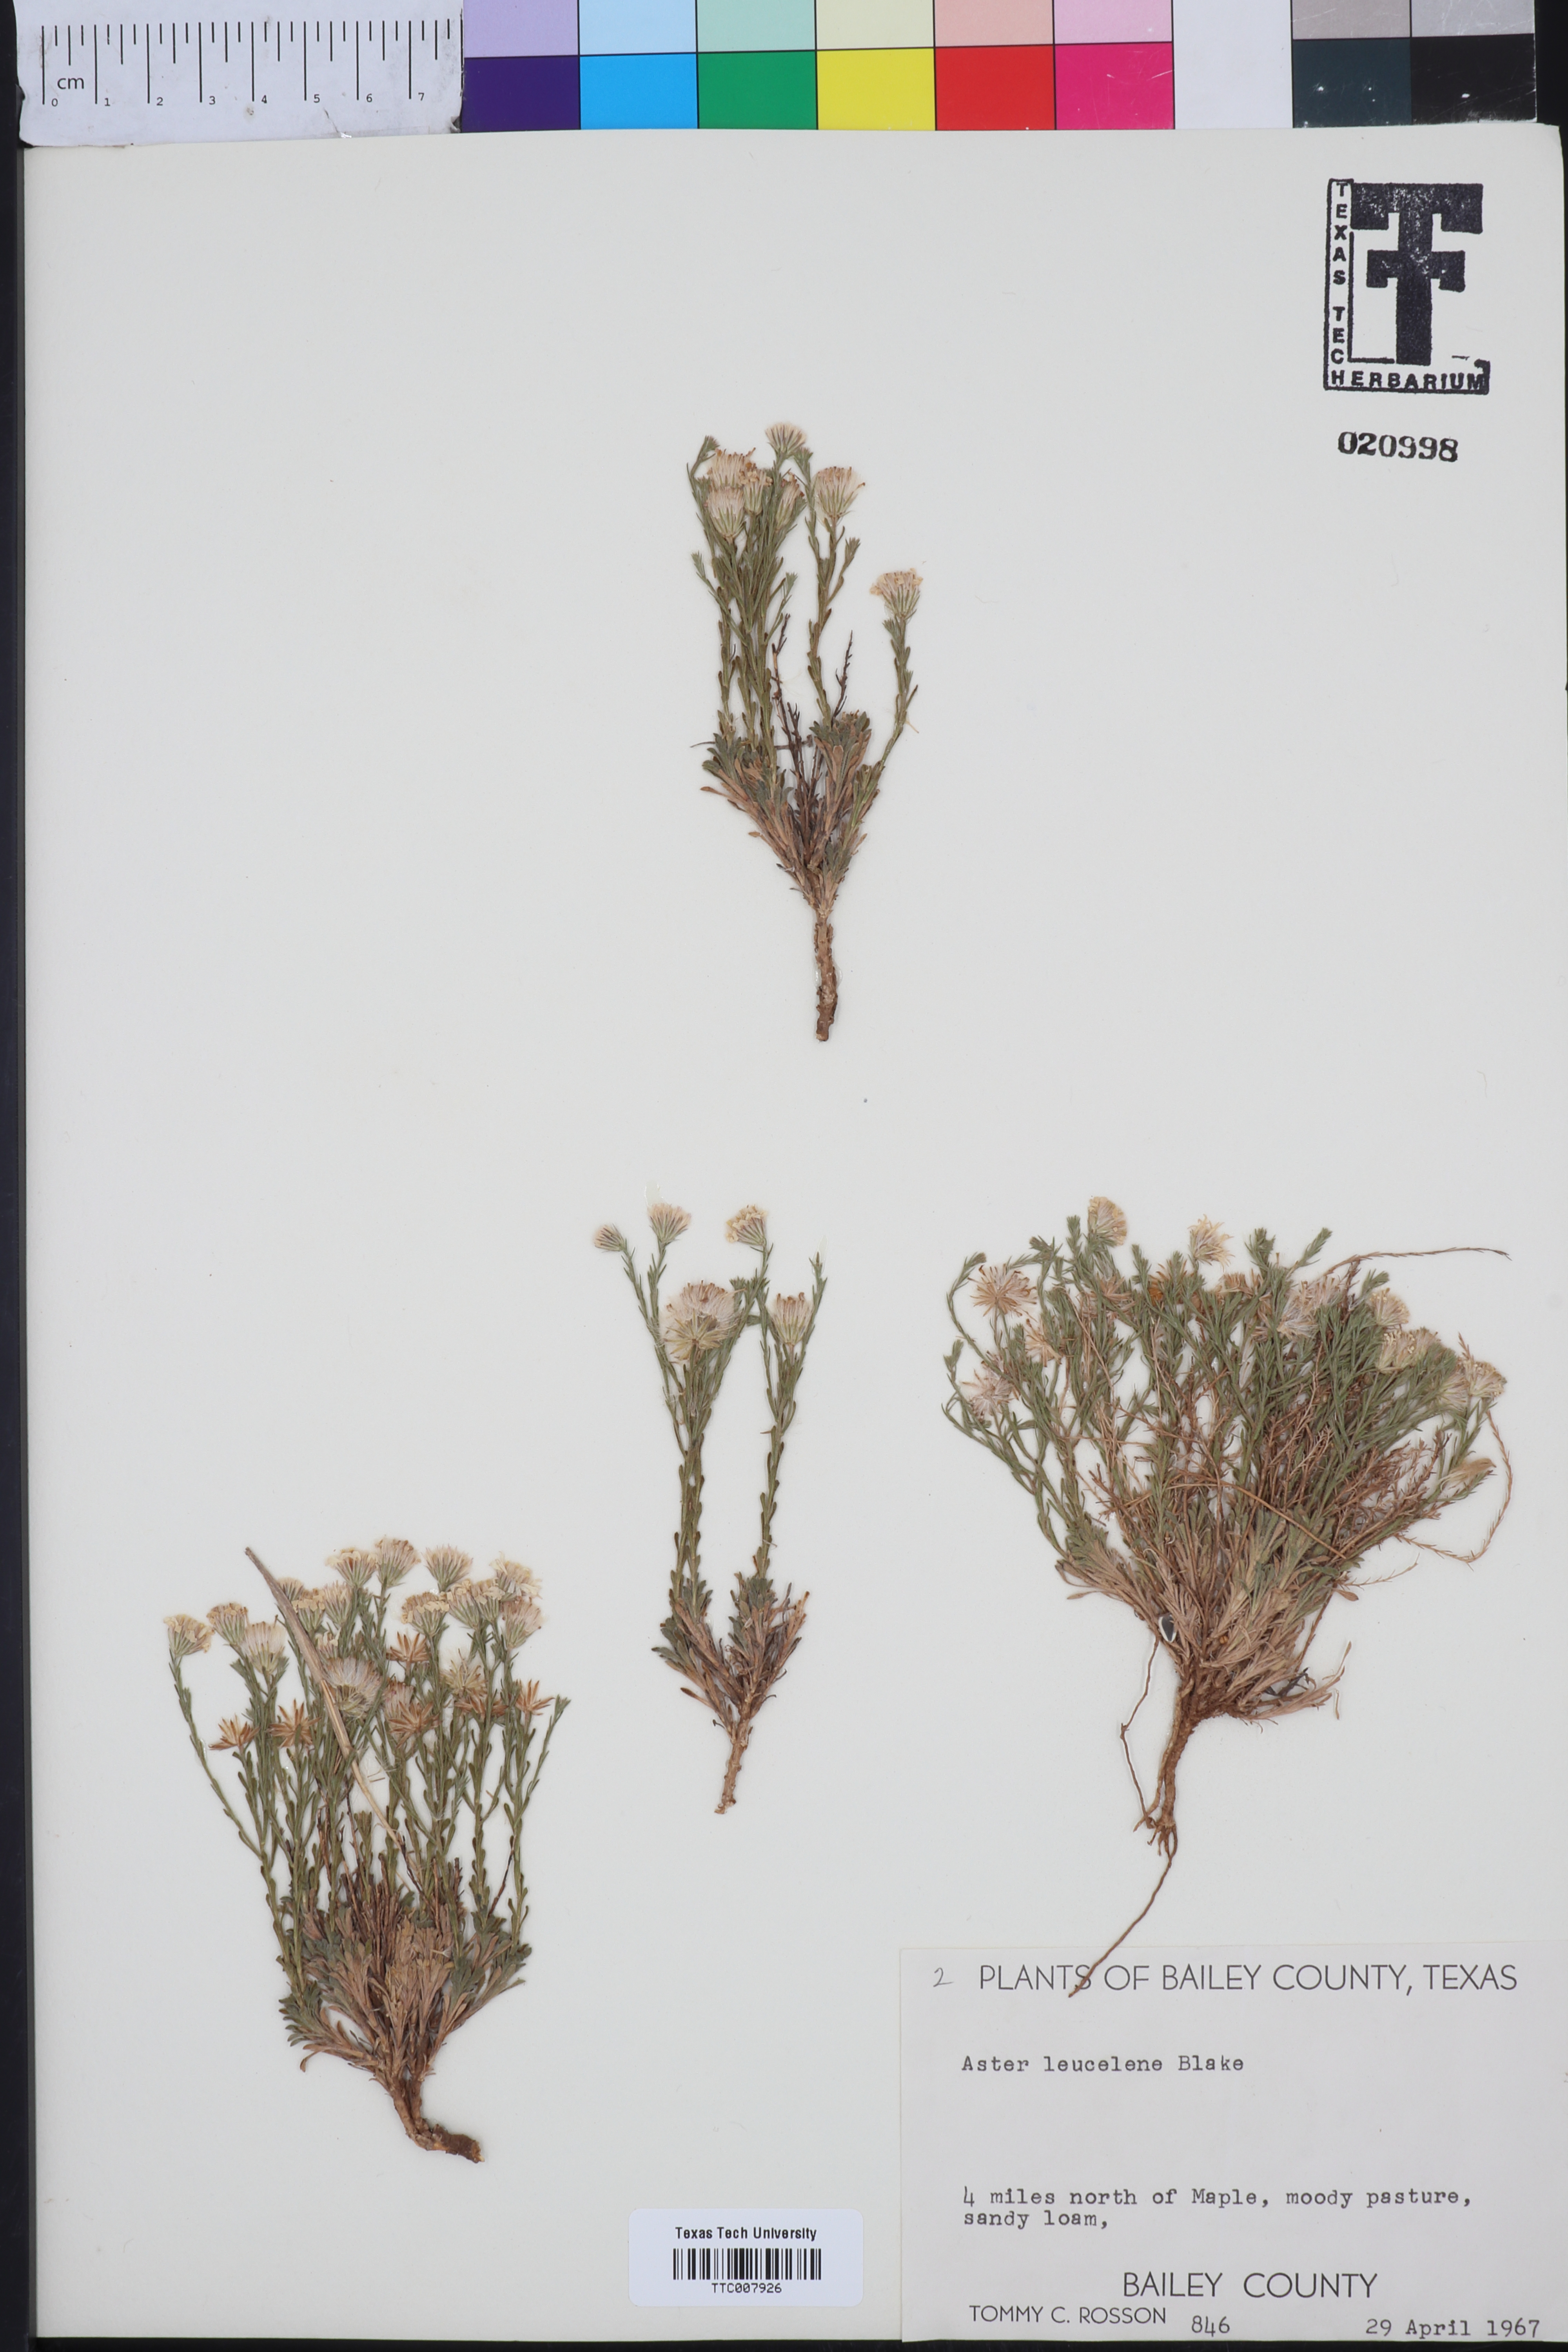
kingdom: Plantae
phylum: Tracheophyta
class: Magnoliopsida
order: Asterales
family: Asteraceae
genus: Chaetopappa
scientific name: Chaetopappa ericoides
